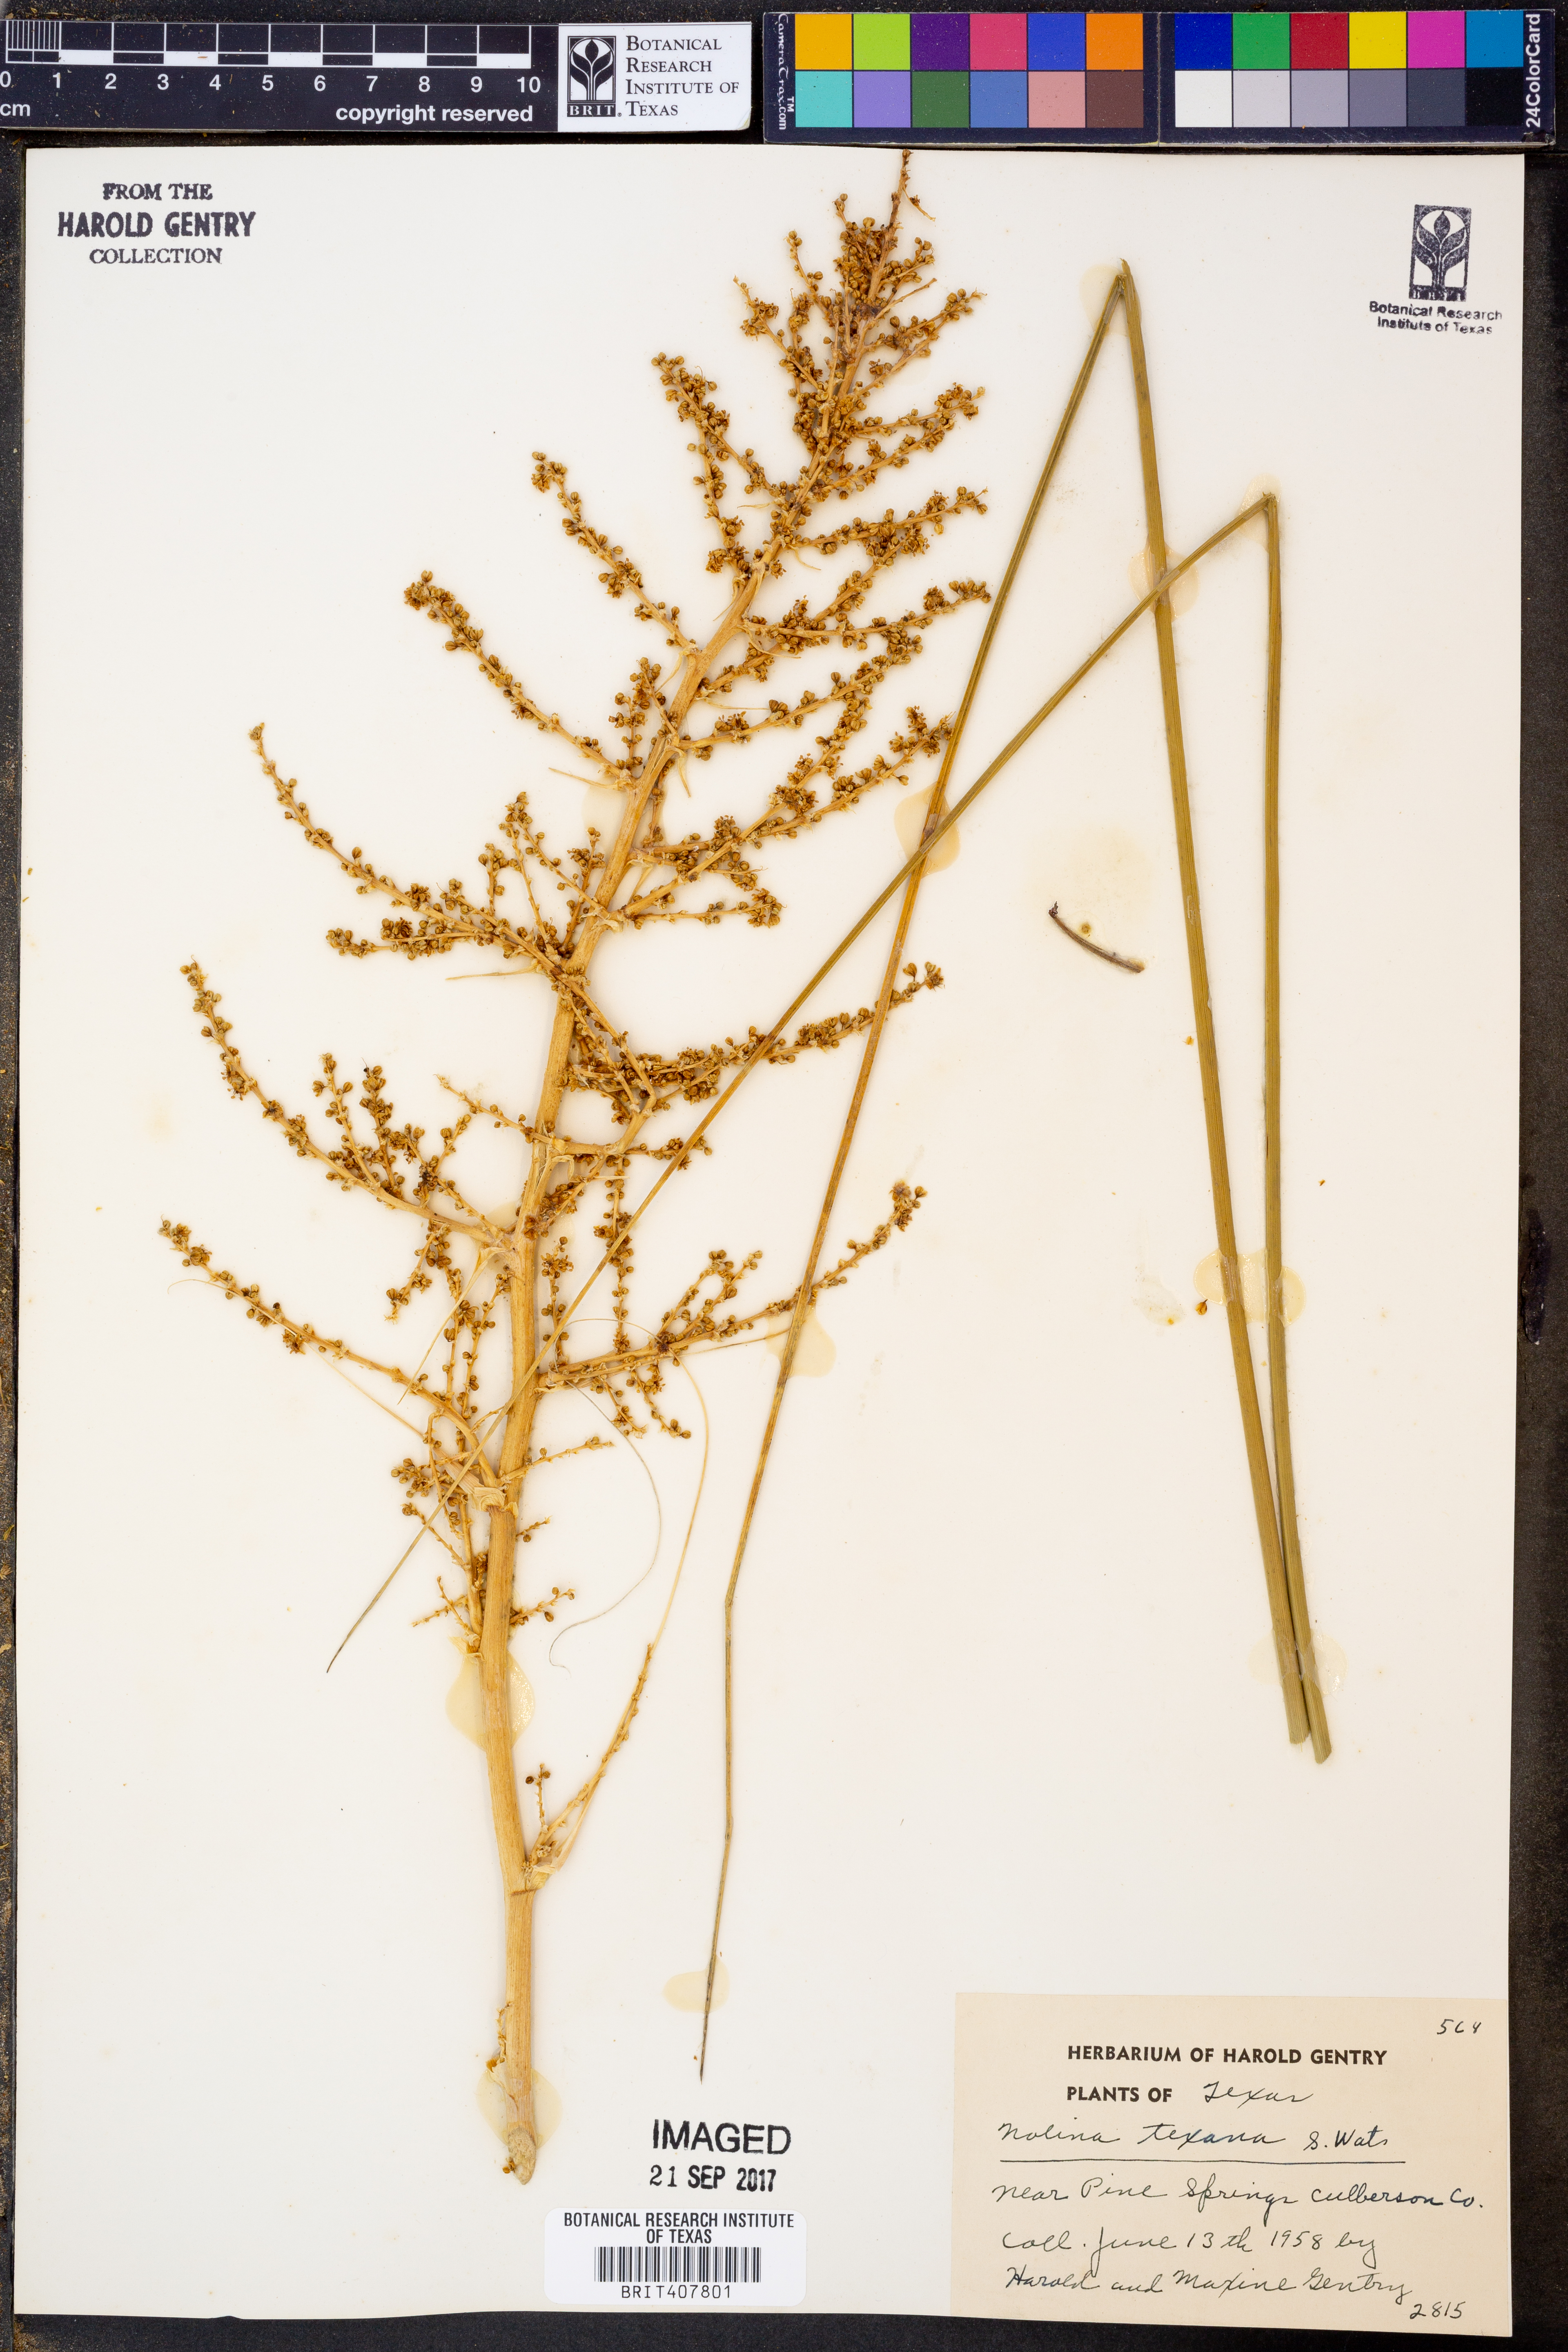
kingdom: Plantae
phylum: Tracheophyta
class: Liliopsida
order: Asparagales
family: Asparagaceae
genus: Nolina
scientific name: Nolina texana
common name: Texas sacahuiste
